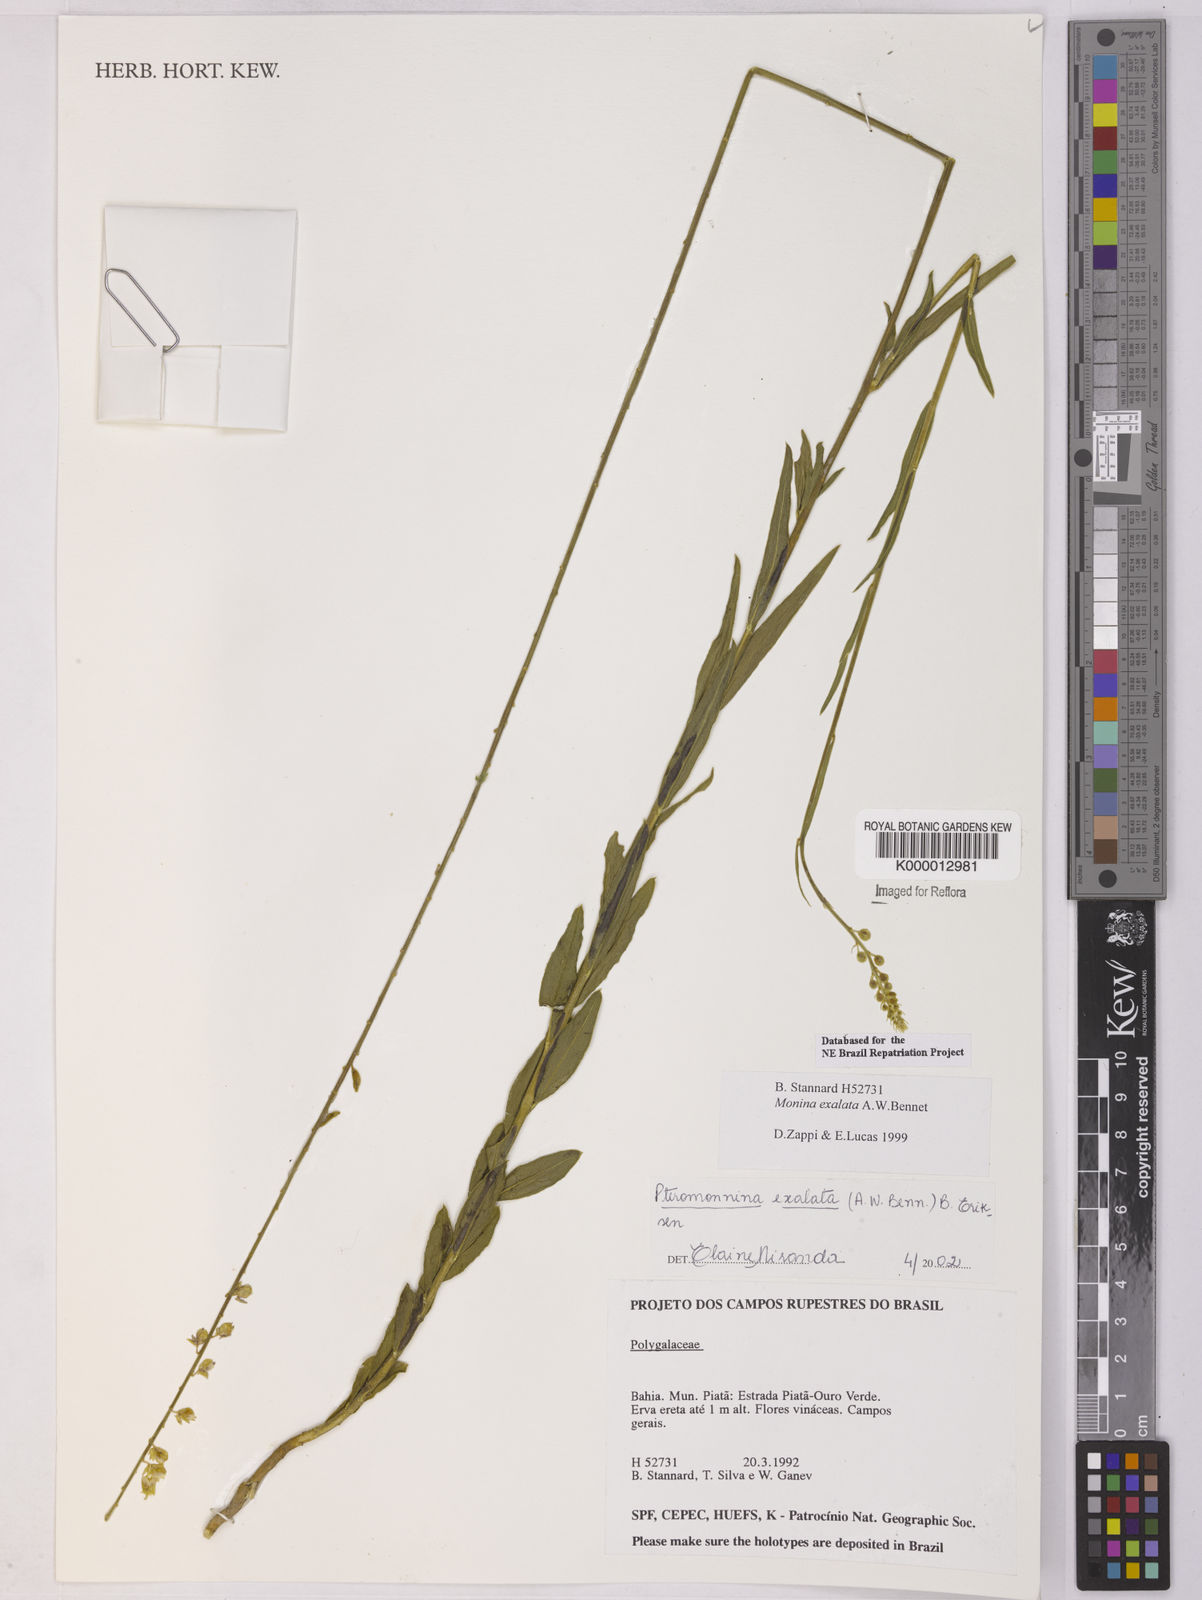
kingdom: Plantae
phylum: Tracheophyta
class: Magnoliopsida
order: Fabales
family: Polygalaceae
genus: Monnina
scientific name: Monnina exalata
